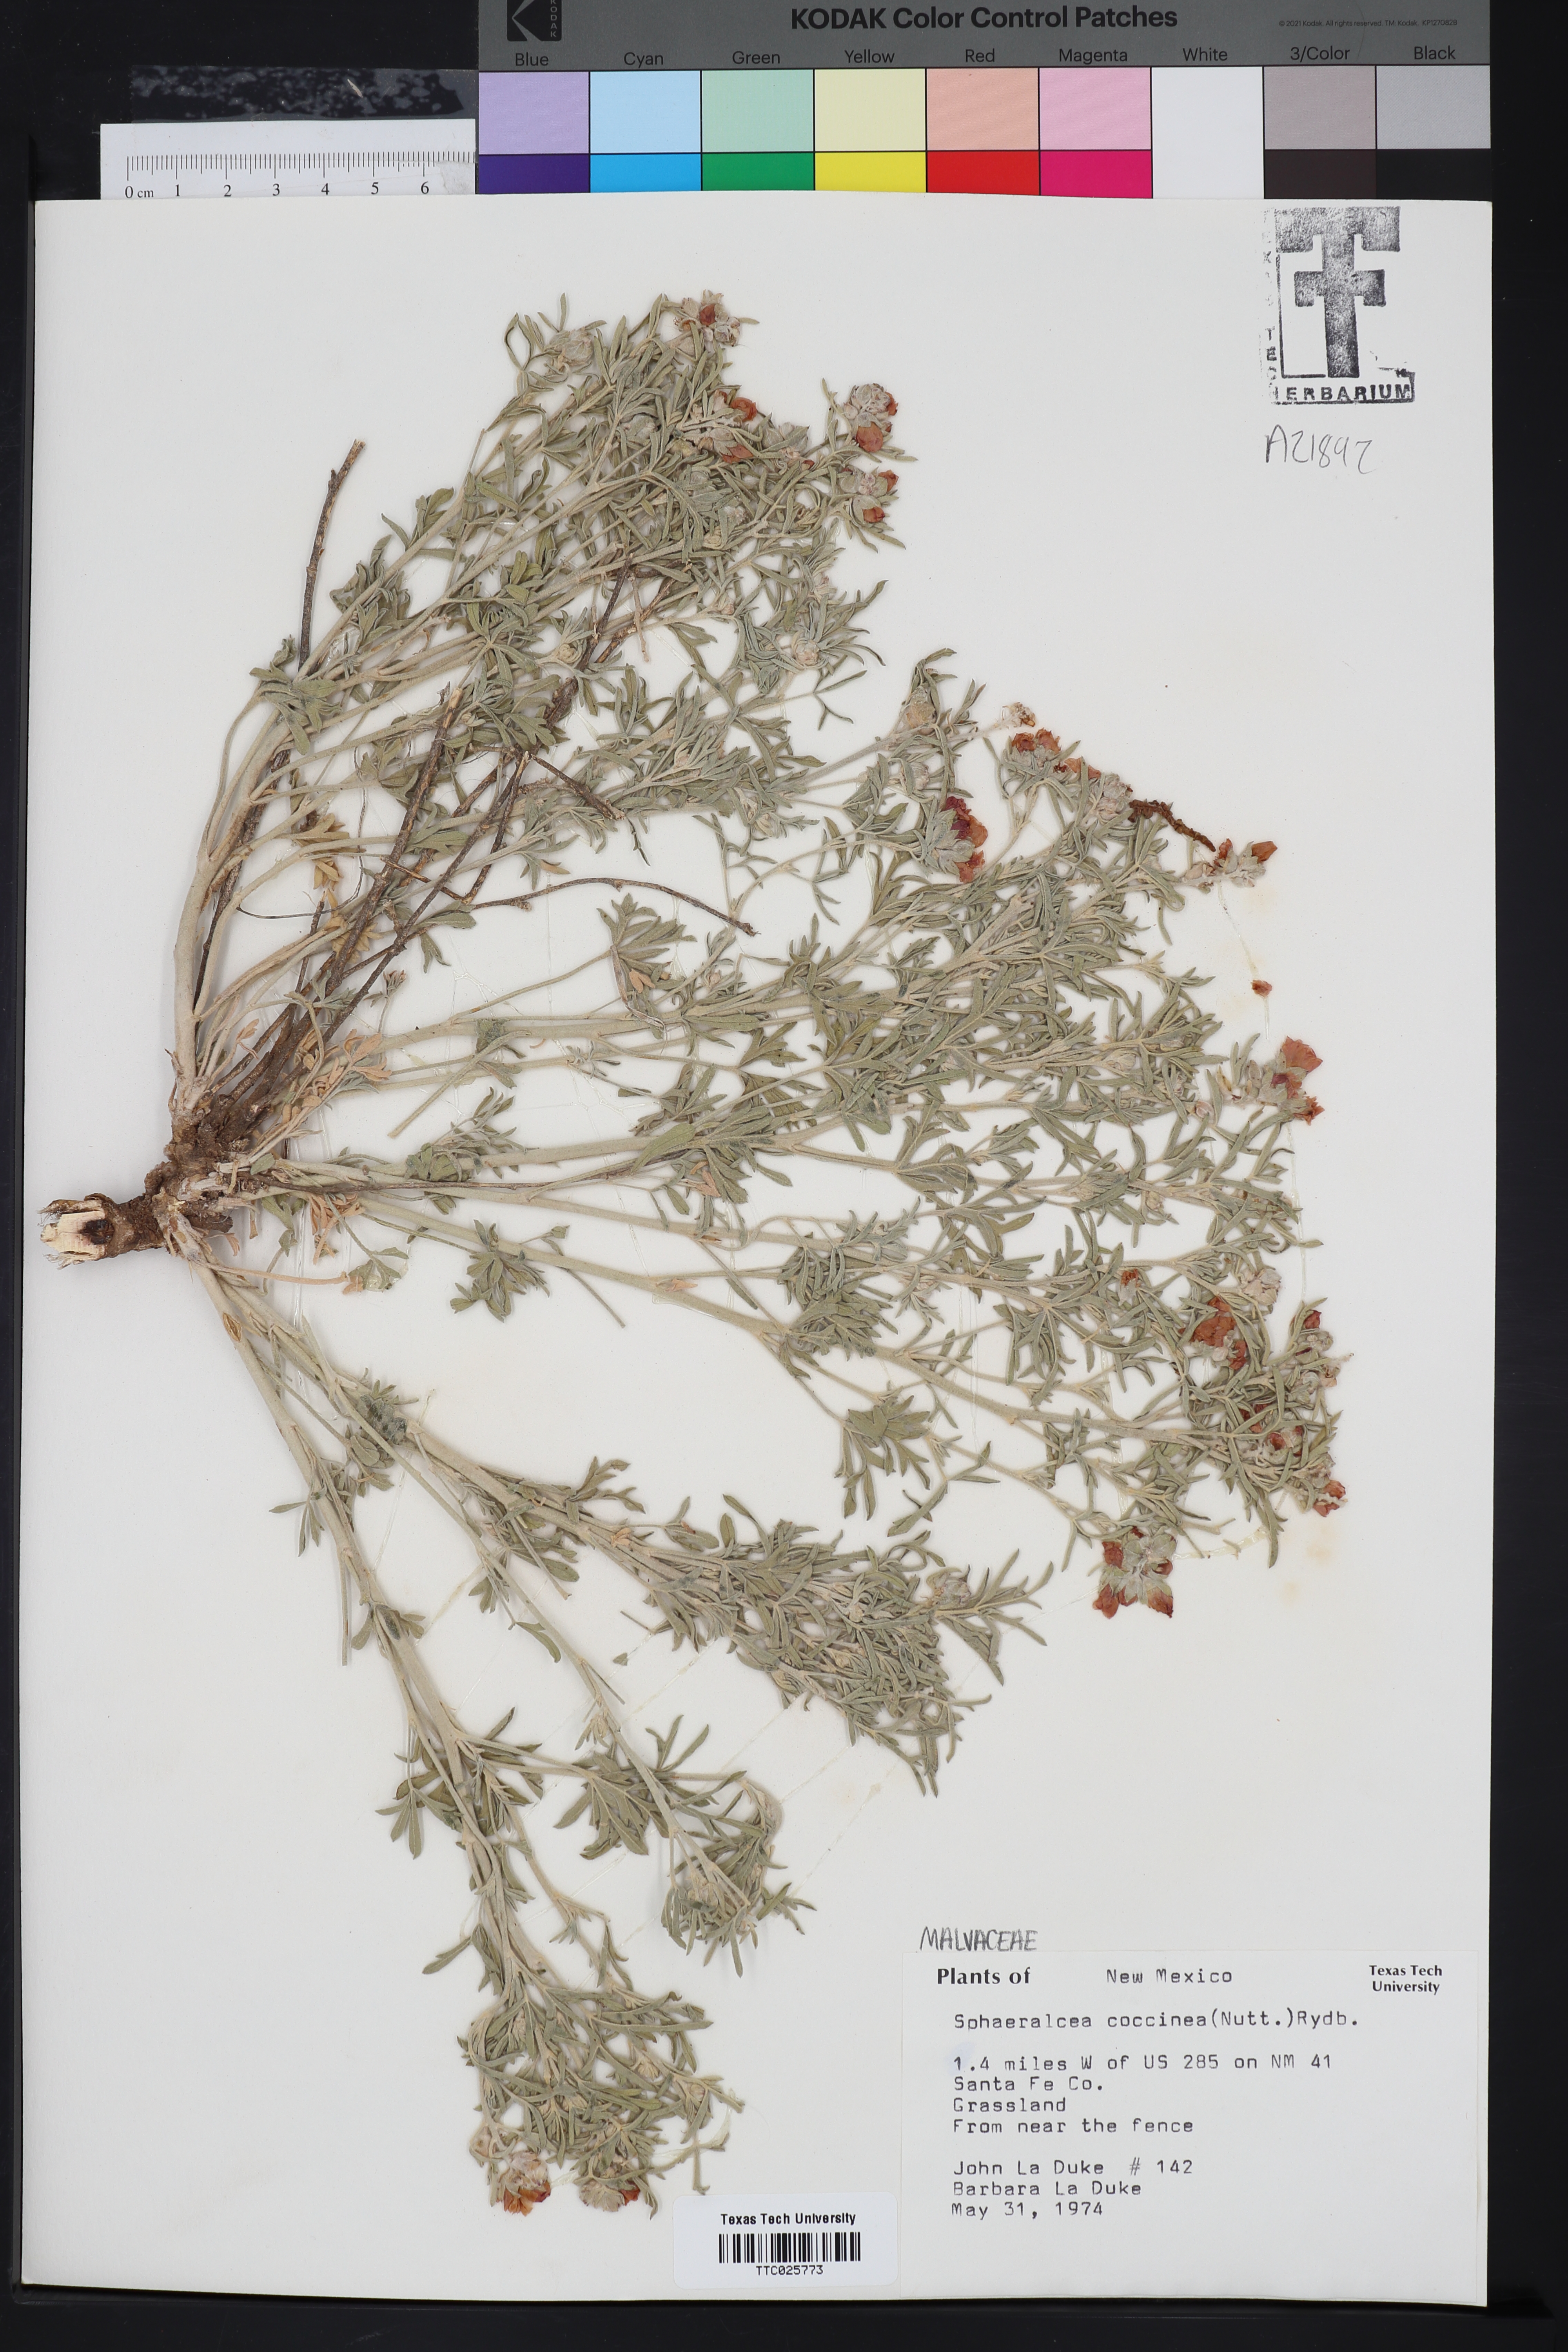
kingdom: Plantae
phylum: Tracheophyta
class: Magnoliopsida
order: Malvales
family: Malvaceae
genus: Sphaeralcea
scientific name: Sphaeralcea coccinea
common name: Moss-rose
